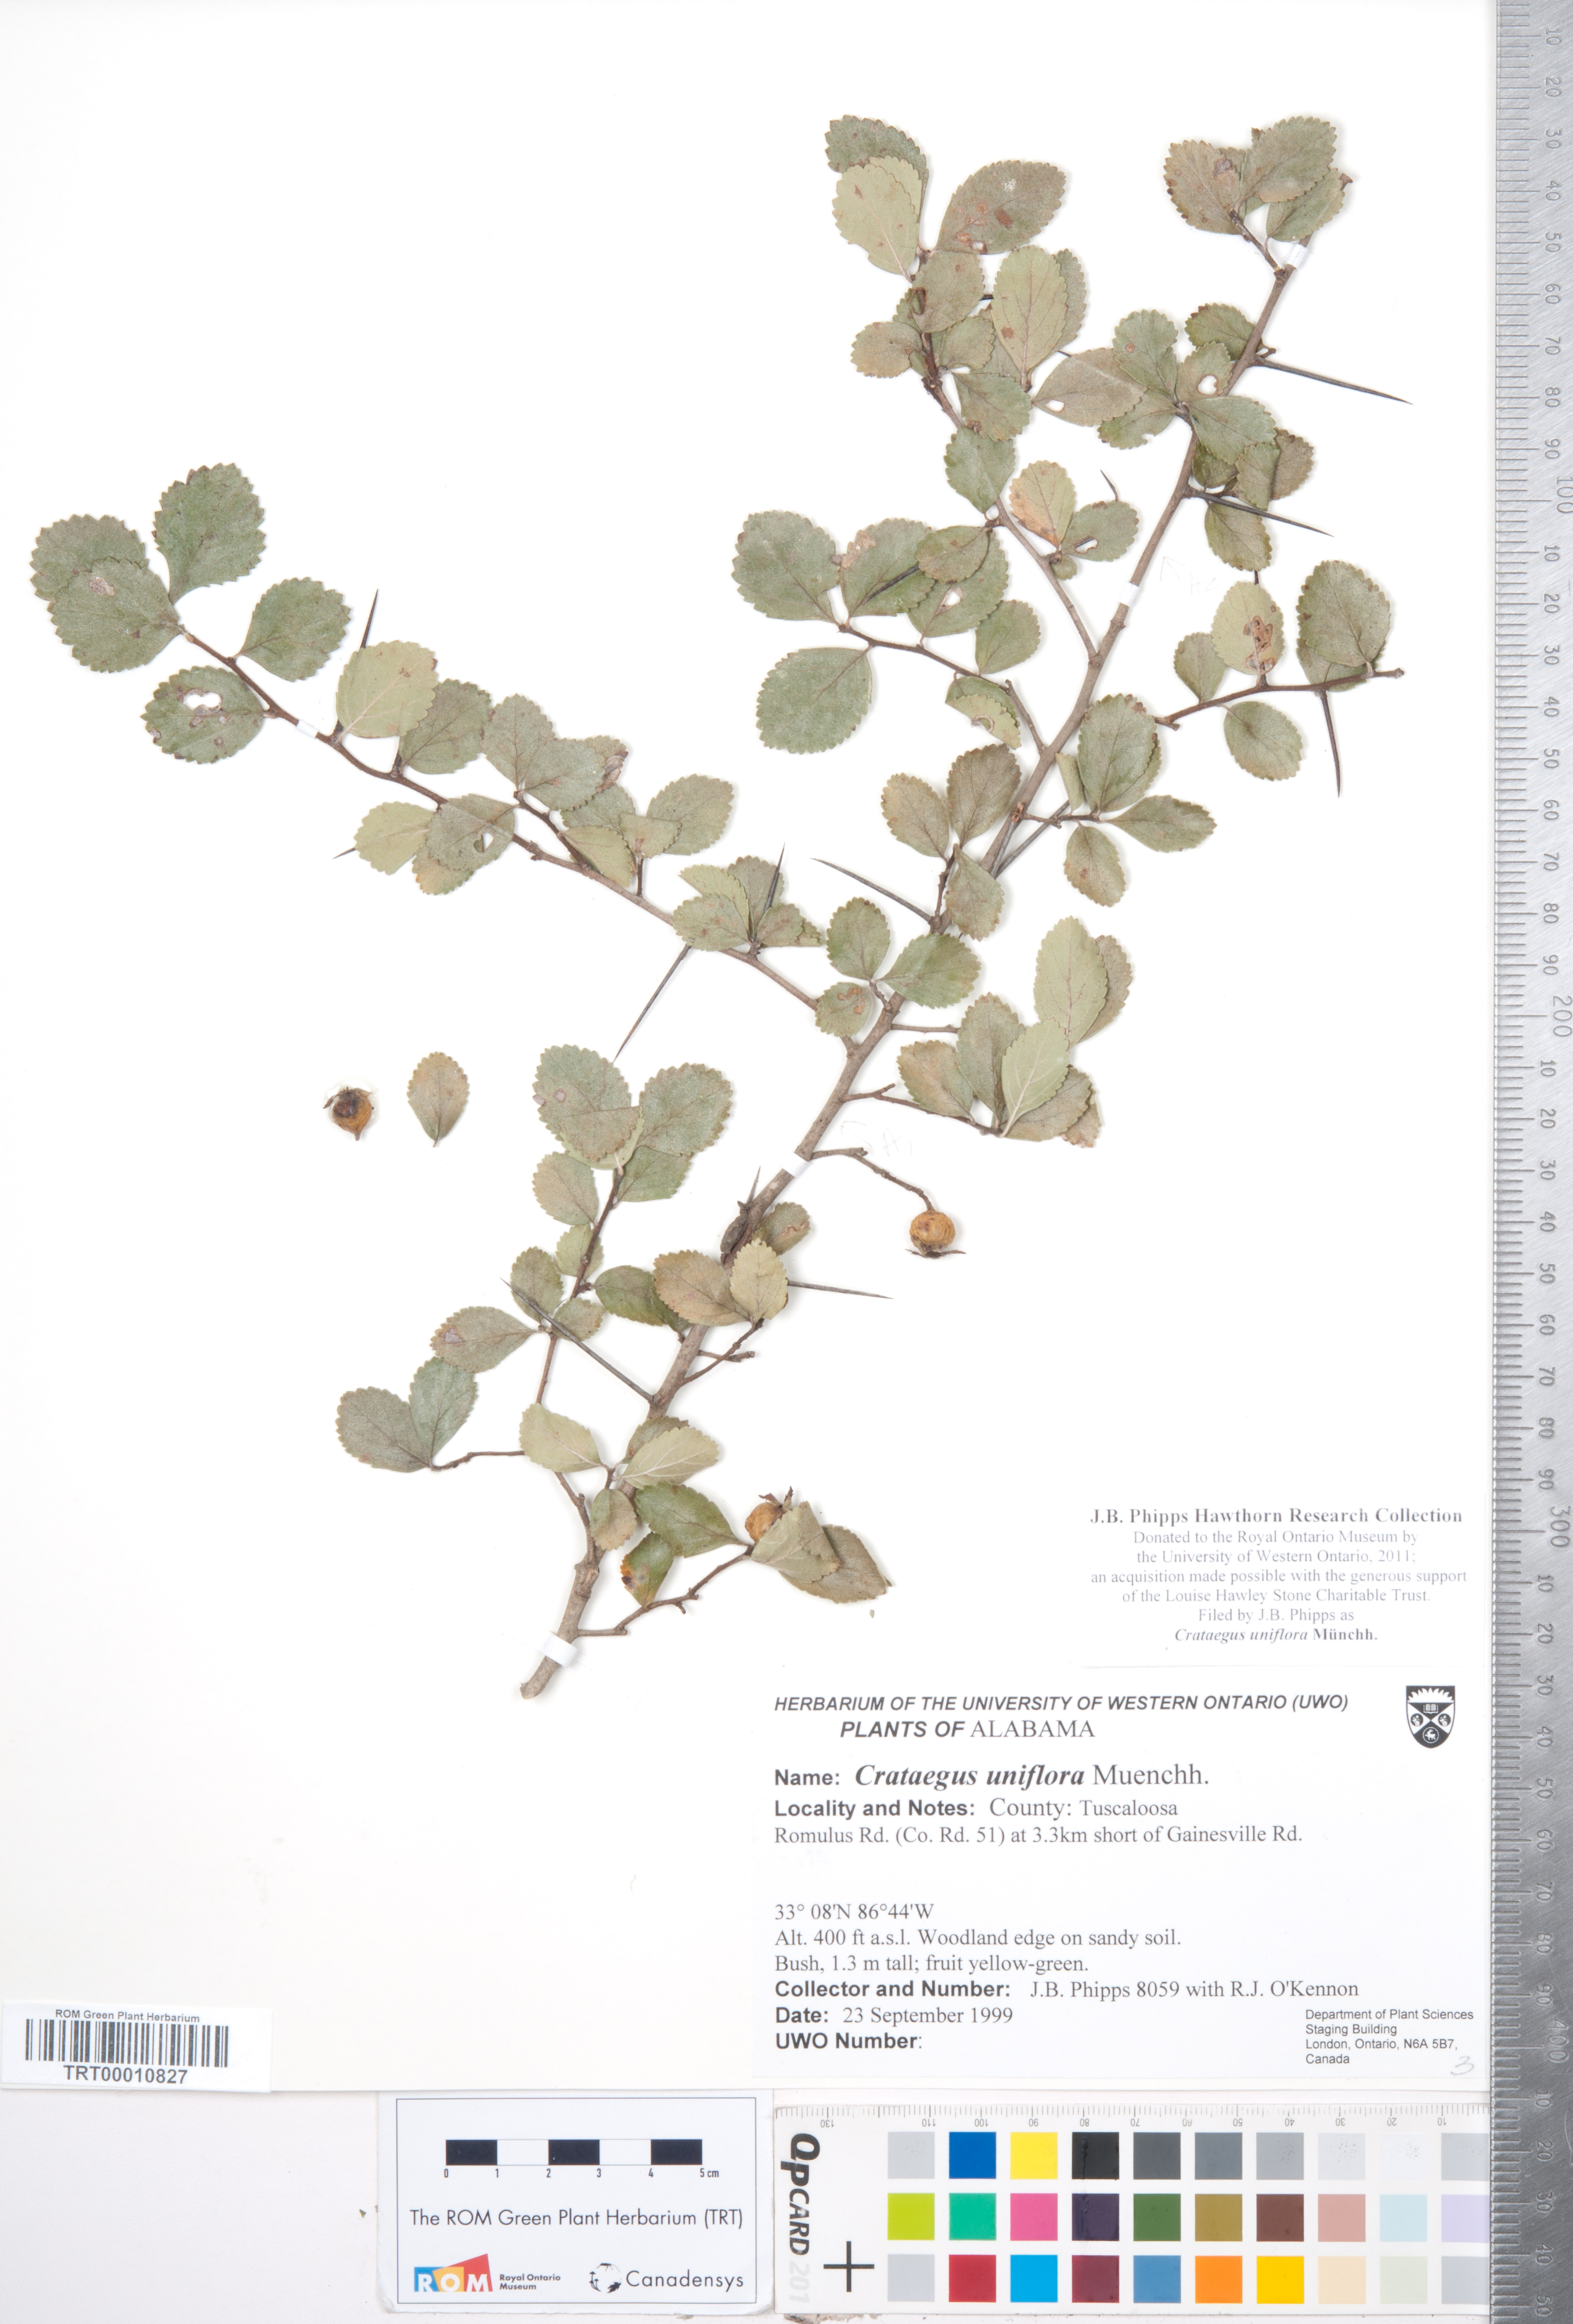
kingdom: Plantae
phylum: Tracheophyta
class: Magnoliopsida
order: Rosales
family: Rosaceae
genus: Crataegus
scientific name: Crataegus uniflora
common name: One-flower hawthorn
